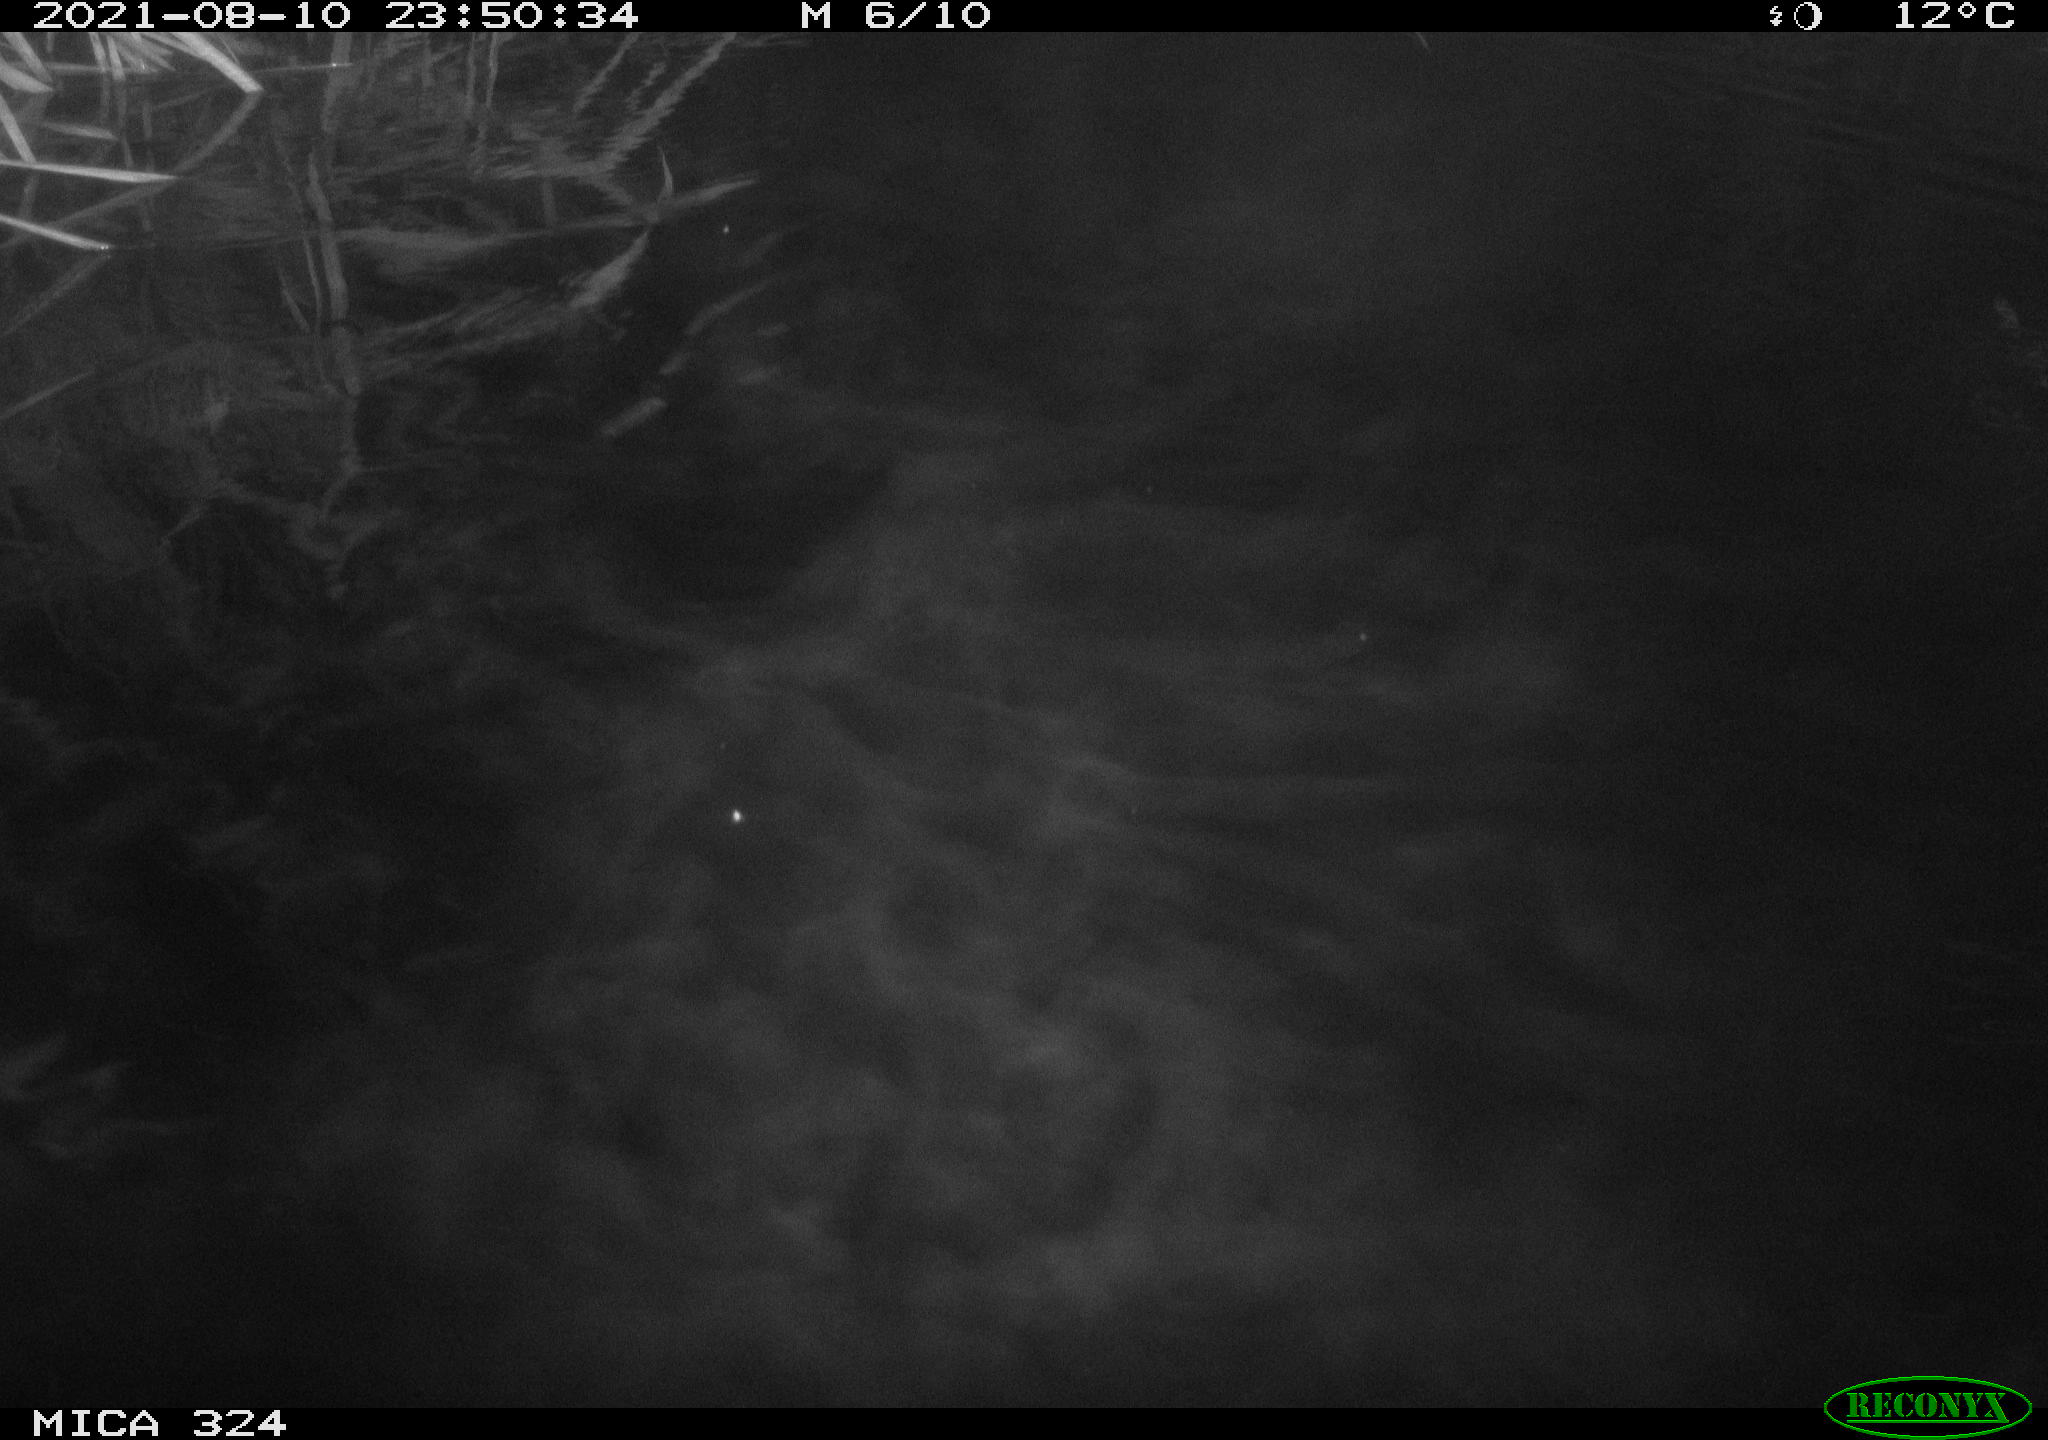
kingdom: Animalia
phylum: Chordata
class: Mammalia
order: Rodentia
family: Cricetidae
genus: Ondatra
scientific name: Ondatra zibethicus
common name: Muskrat
